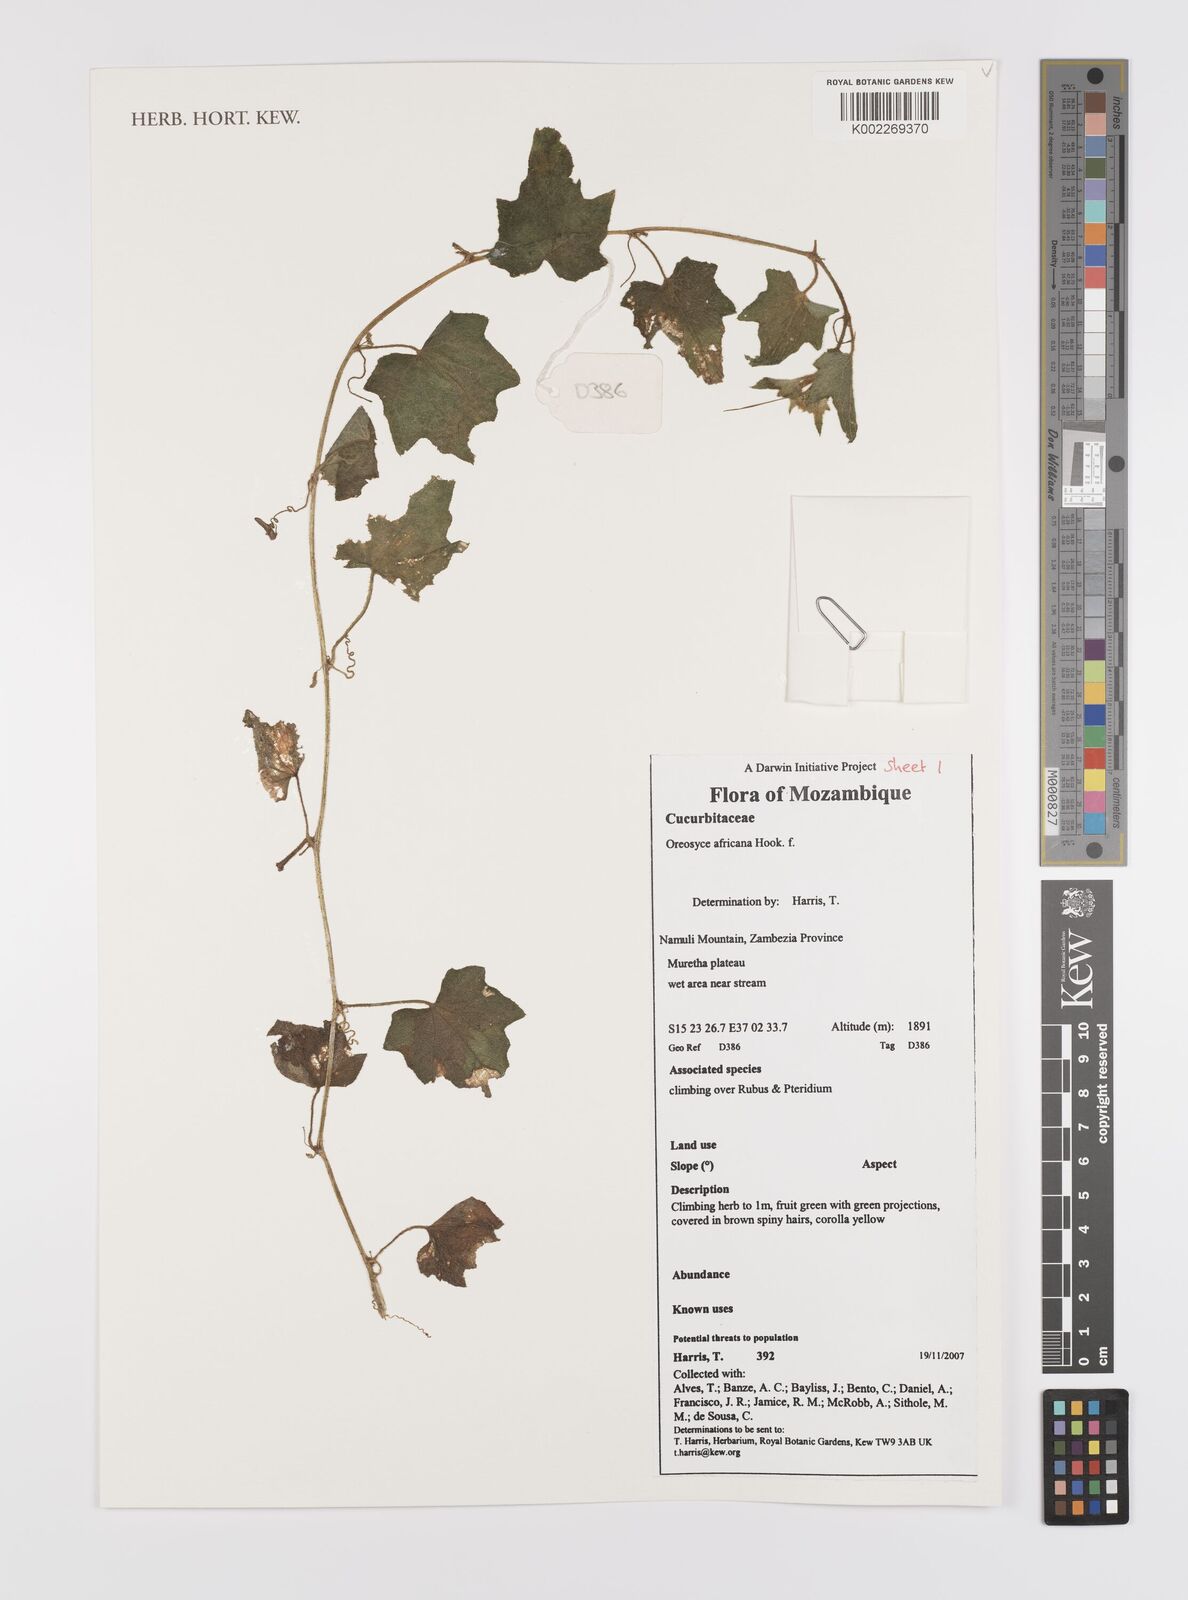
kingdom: Plantae
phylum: Tracheophyta
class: Magnoliopsida
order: Cucurbitales
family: Cucurbitaceae
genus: Cucumis
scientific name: Cucumis oreosyce
